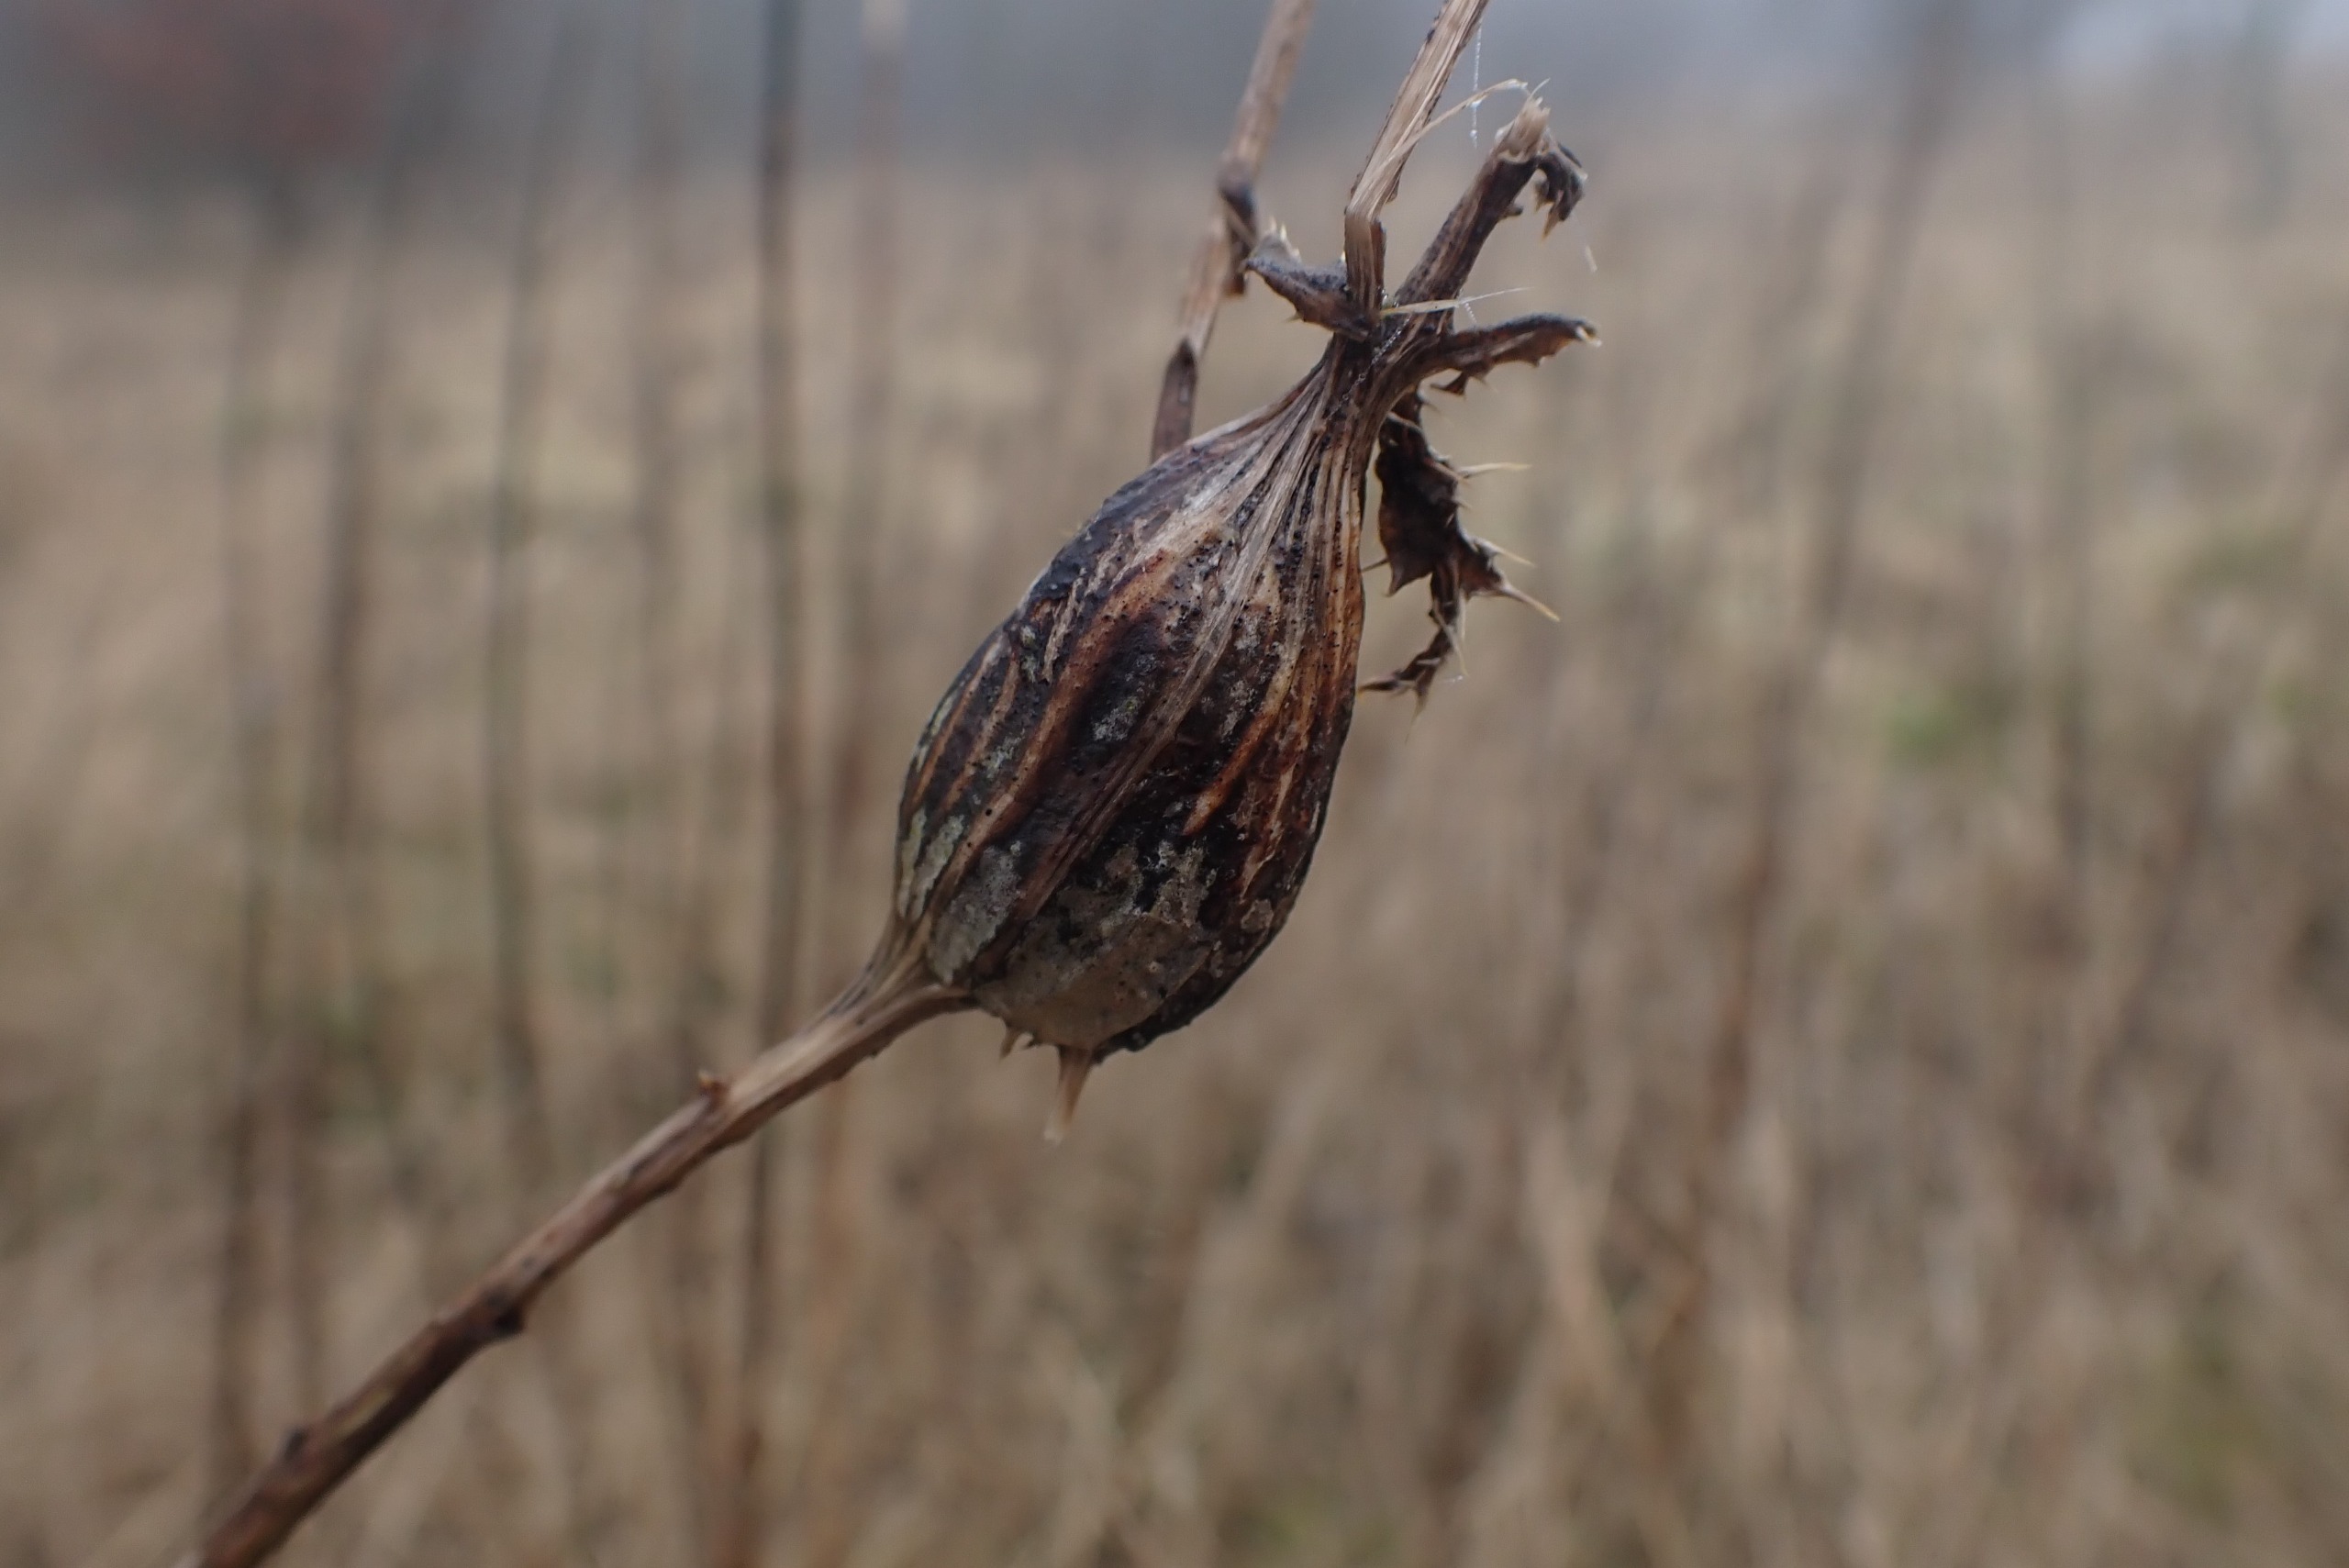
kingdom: Animalia
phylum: Arthropoda
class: Insecta
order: Diptera
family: Tephritidae
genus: Urophora
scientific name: Urophora cardui
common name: Tidselbåndflue
